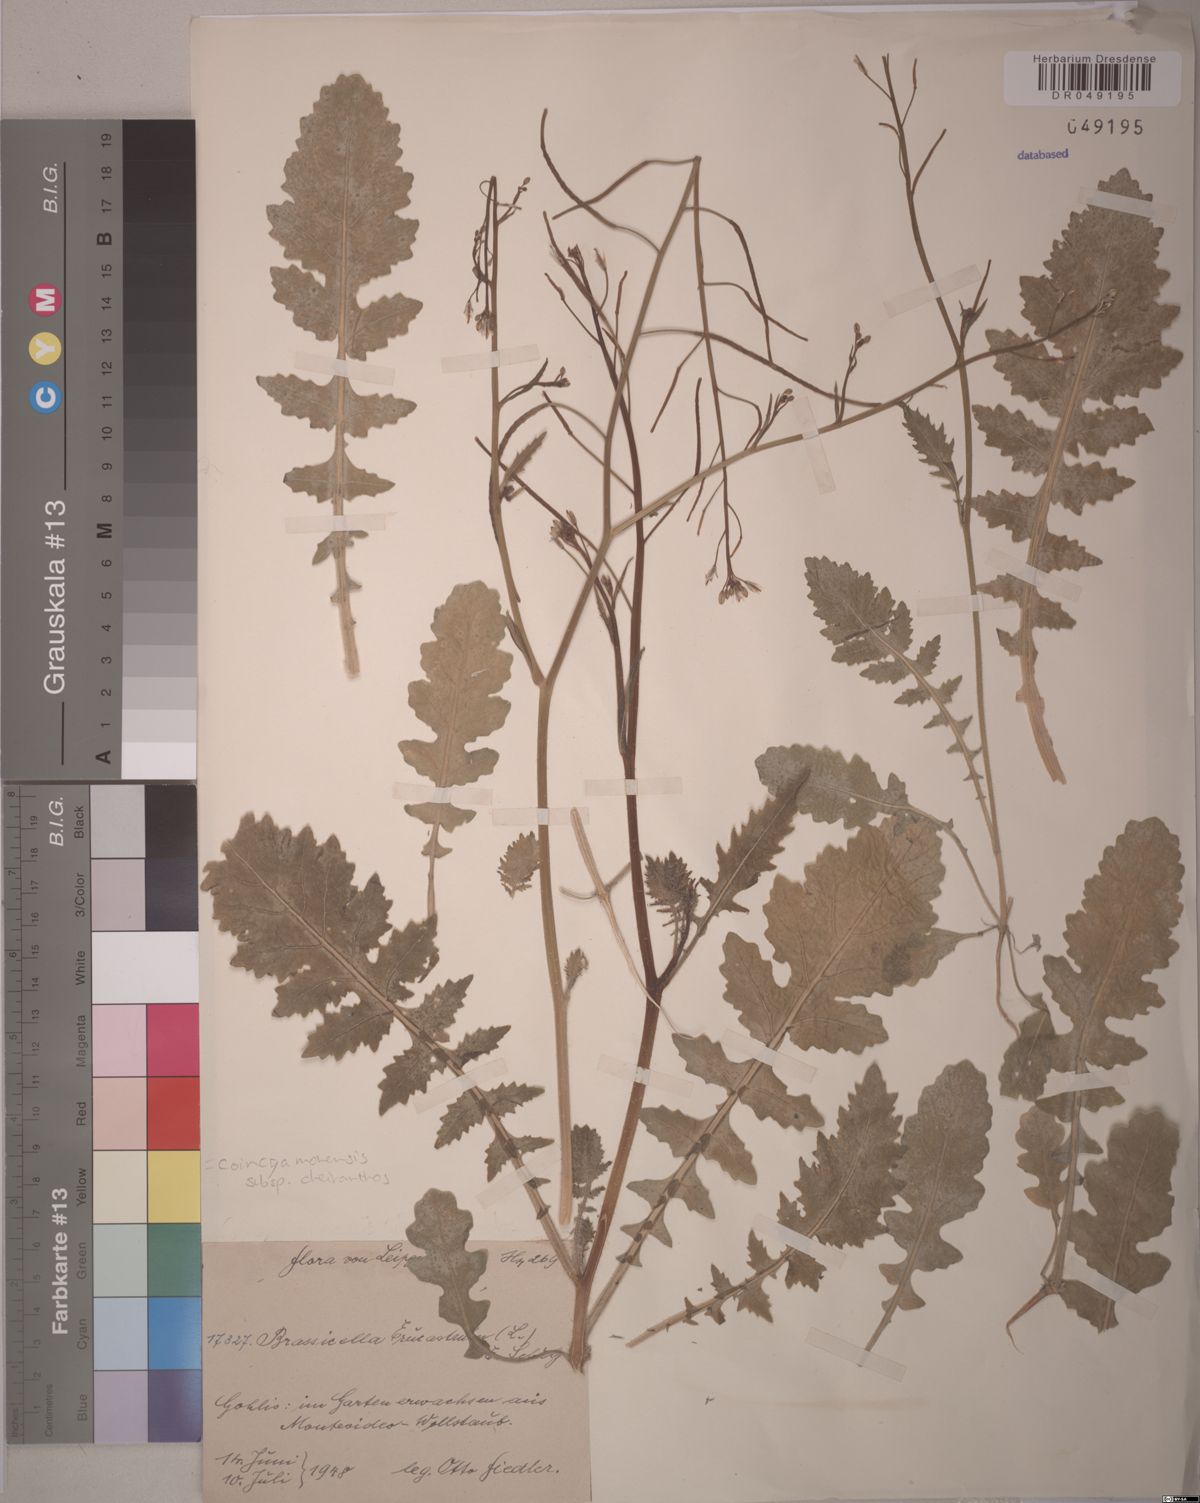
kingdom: Plantae
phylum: Tracheophyta
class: Magnoliopsida
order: Brassicales
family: Brassicaceae
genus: Coincya
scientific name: Coincya monensis
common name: Star-mustard
